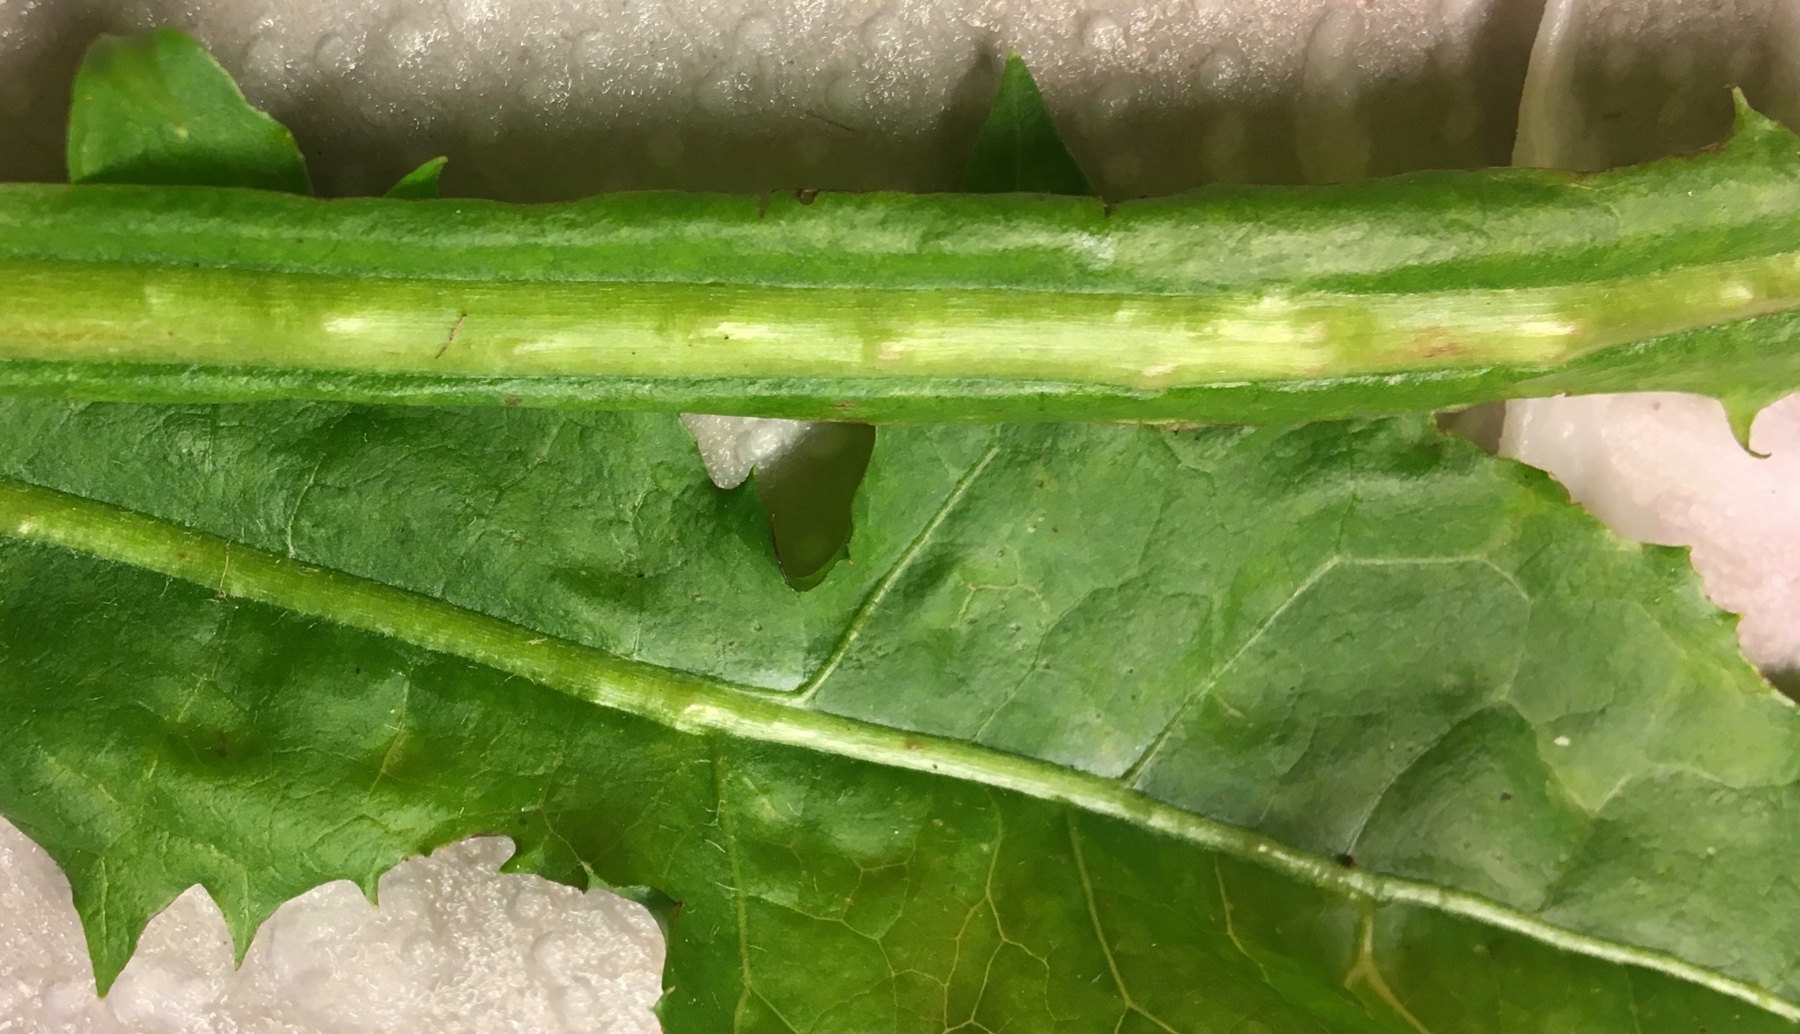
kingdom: Fungi
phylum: Ascomycota
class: Taphrinomycetes
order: Taphrinales
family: Taphrinaceae
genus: Protomyces
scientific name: Protomyces pachydermus
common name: mælkebøtte-vablesæk
